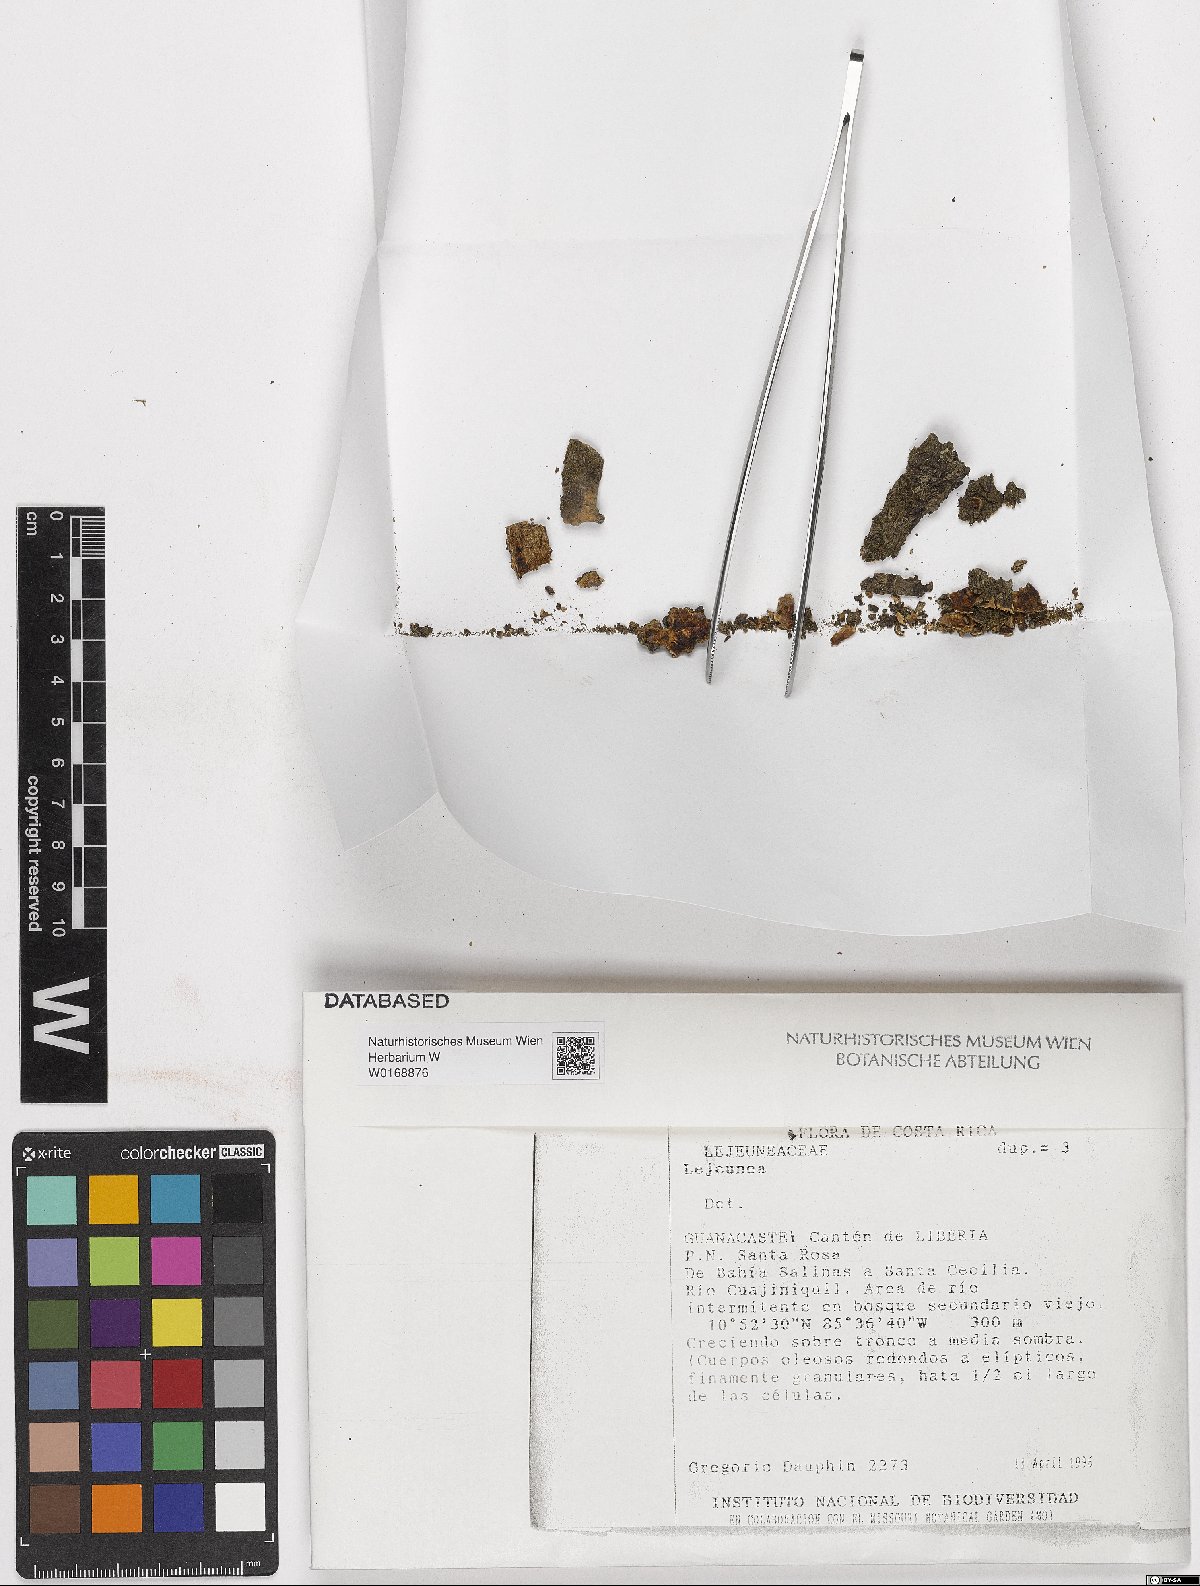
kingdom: Plantae
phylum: Marchantiophyta
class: Jungermanniopsida
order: Porellales
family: Lejeuneaceae
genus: Lejeunea
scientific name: Lejeunea
